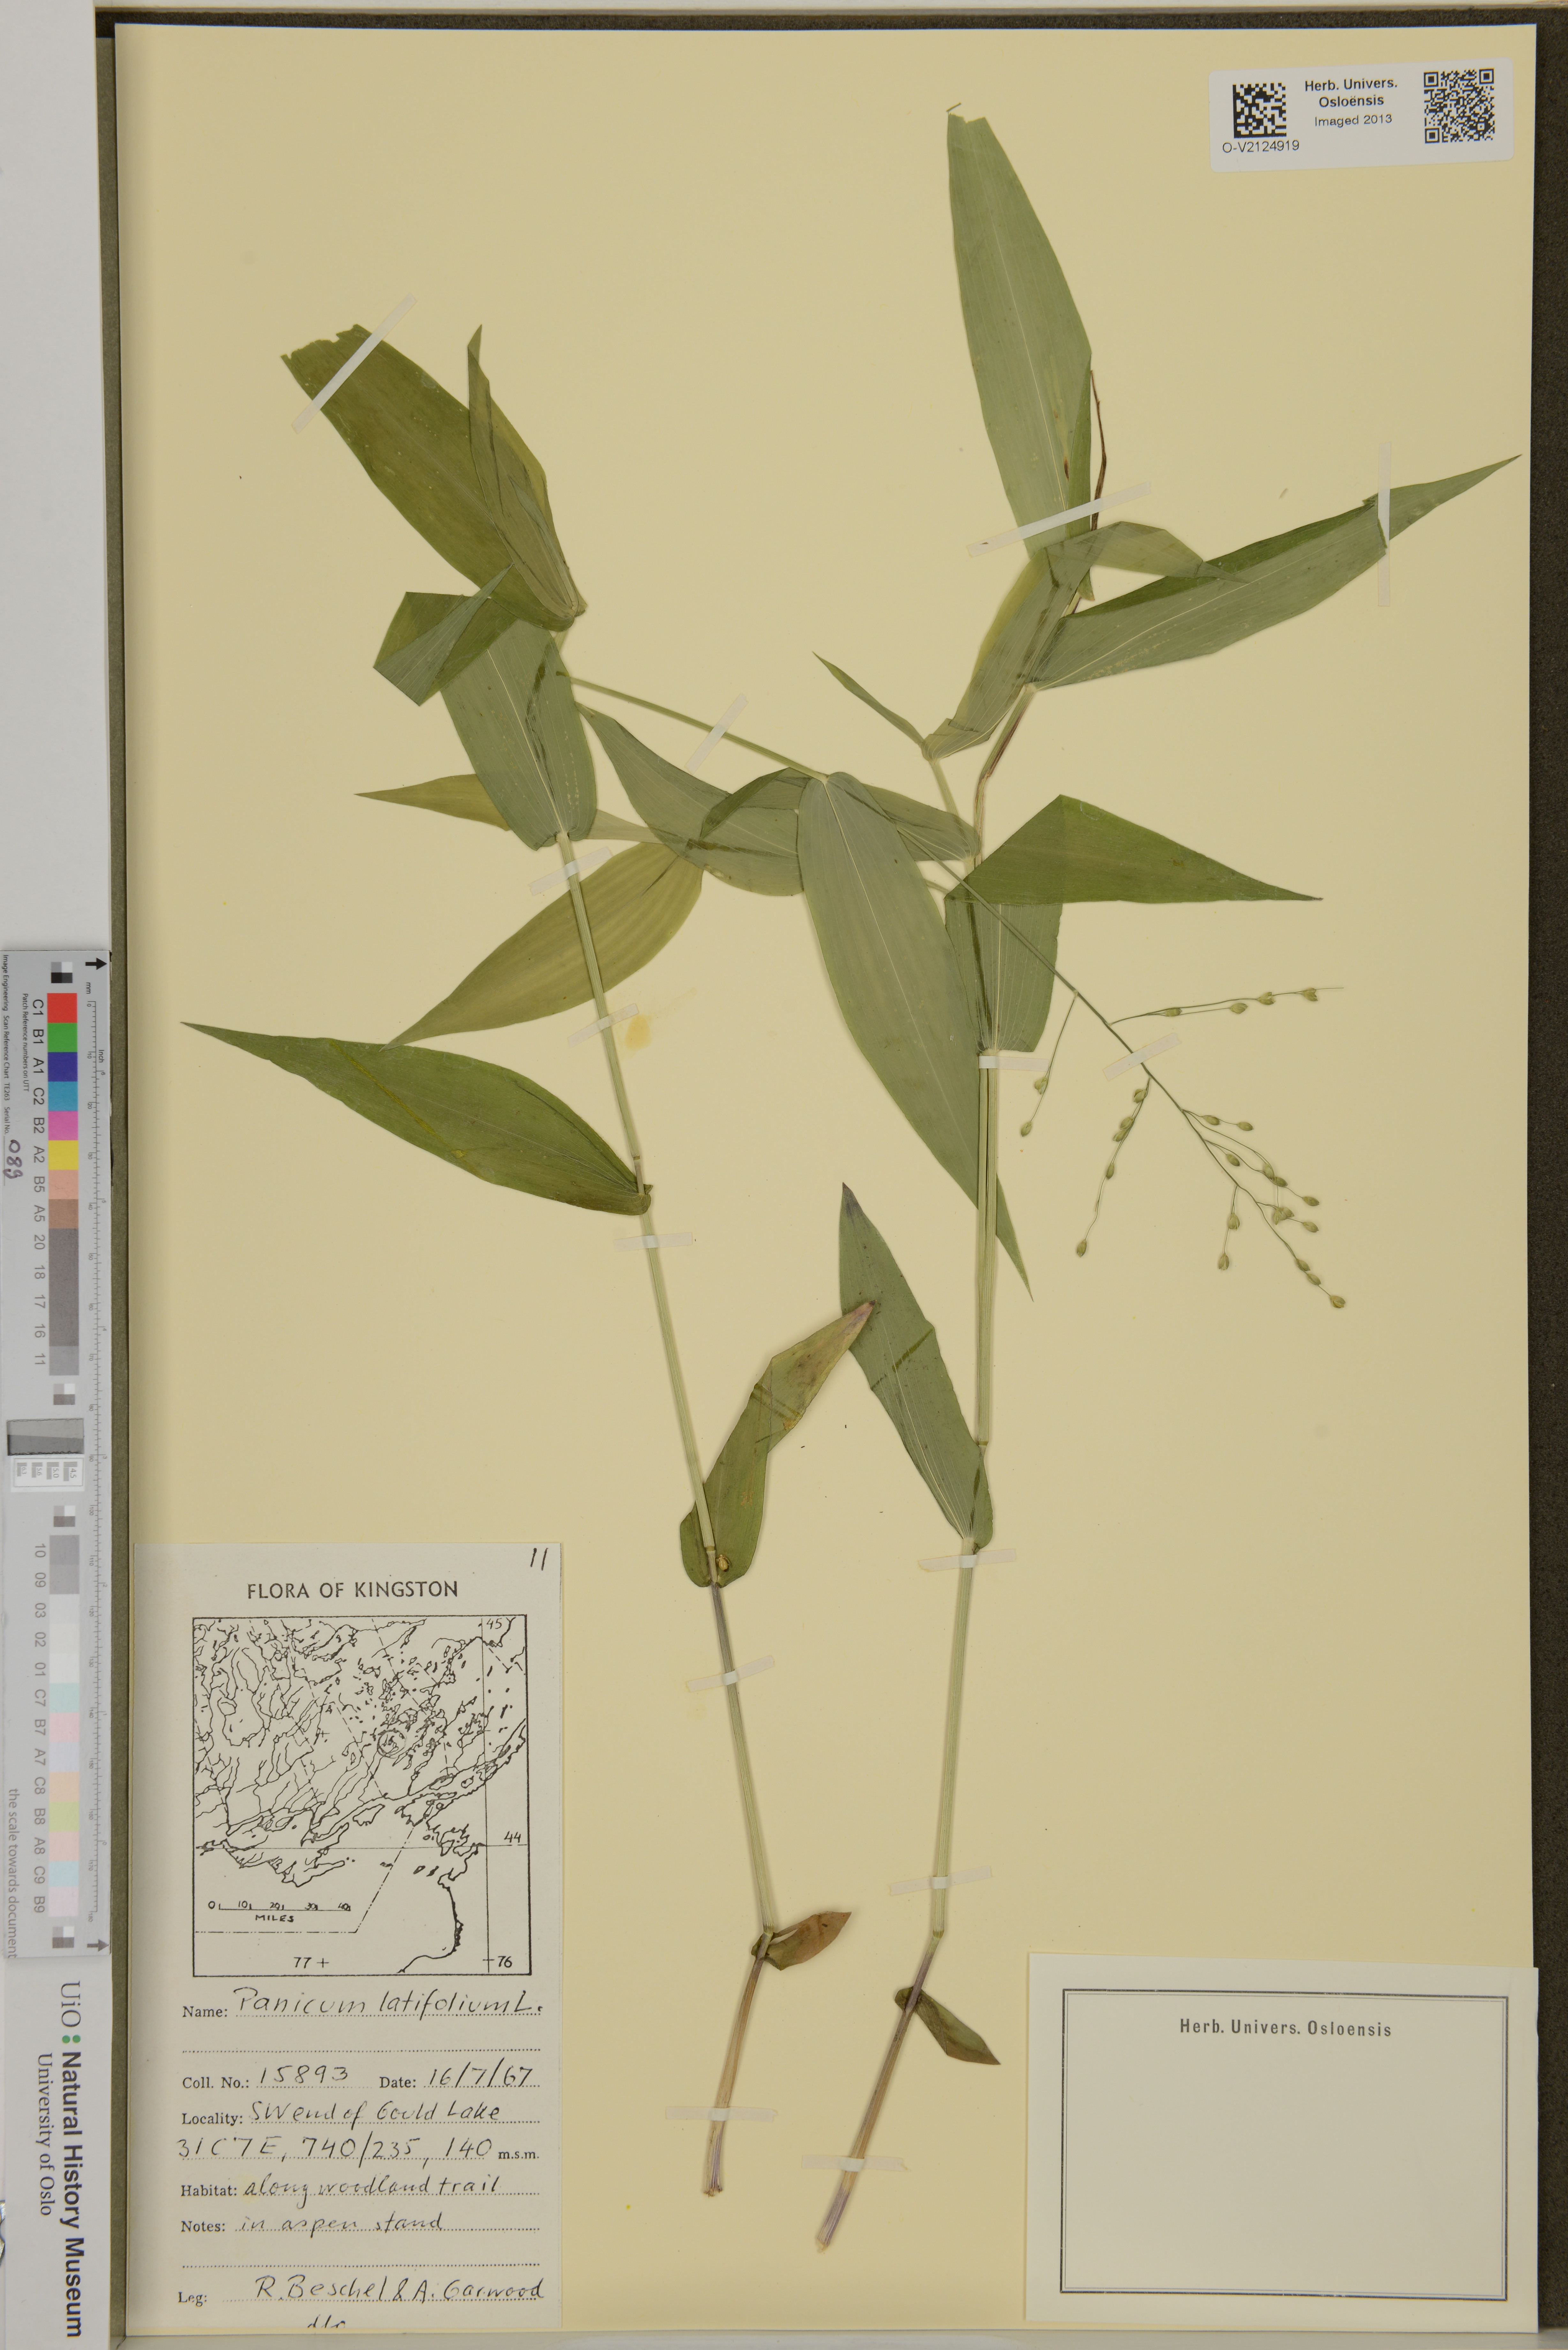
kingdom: Plantae
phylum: Tracheophyta
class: Liliopsida
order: Poales
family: Poaceae
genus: Panicum
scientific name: Panicum latifolium
